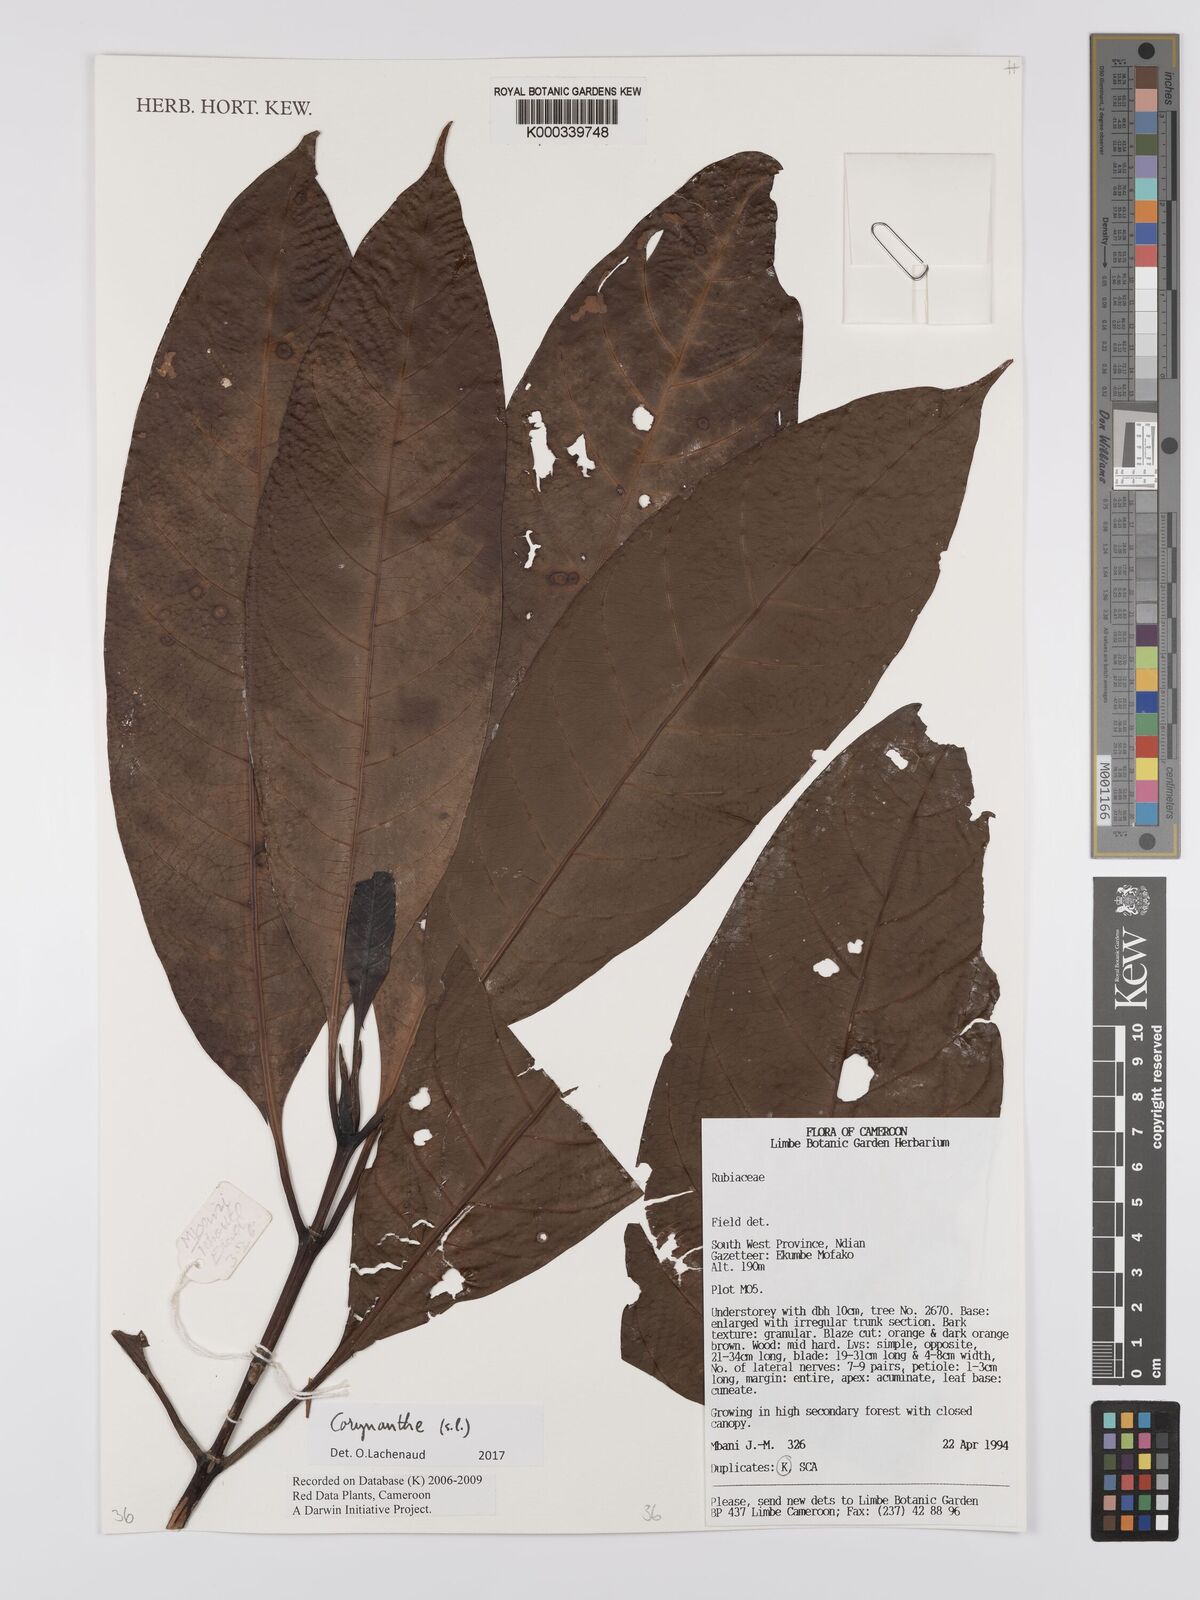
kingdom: Plantae
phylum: Tracheophyta
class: Magnoliopsida
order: Gentianales
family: Rubiaceae
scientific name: Rubiaceae
